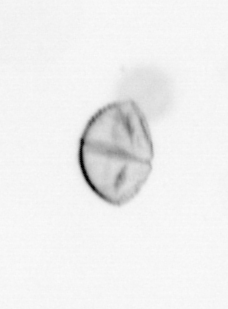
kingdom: Chromista
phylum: Ochrophyta
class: Bacillariophyceae
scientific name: Bacillariophyceae
